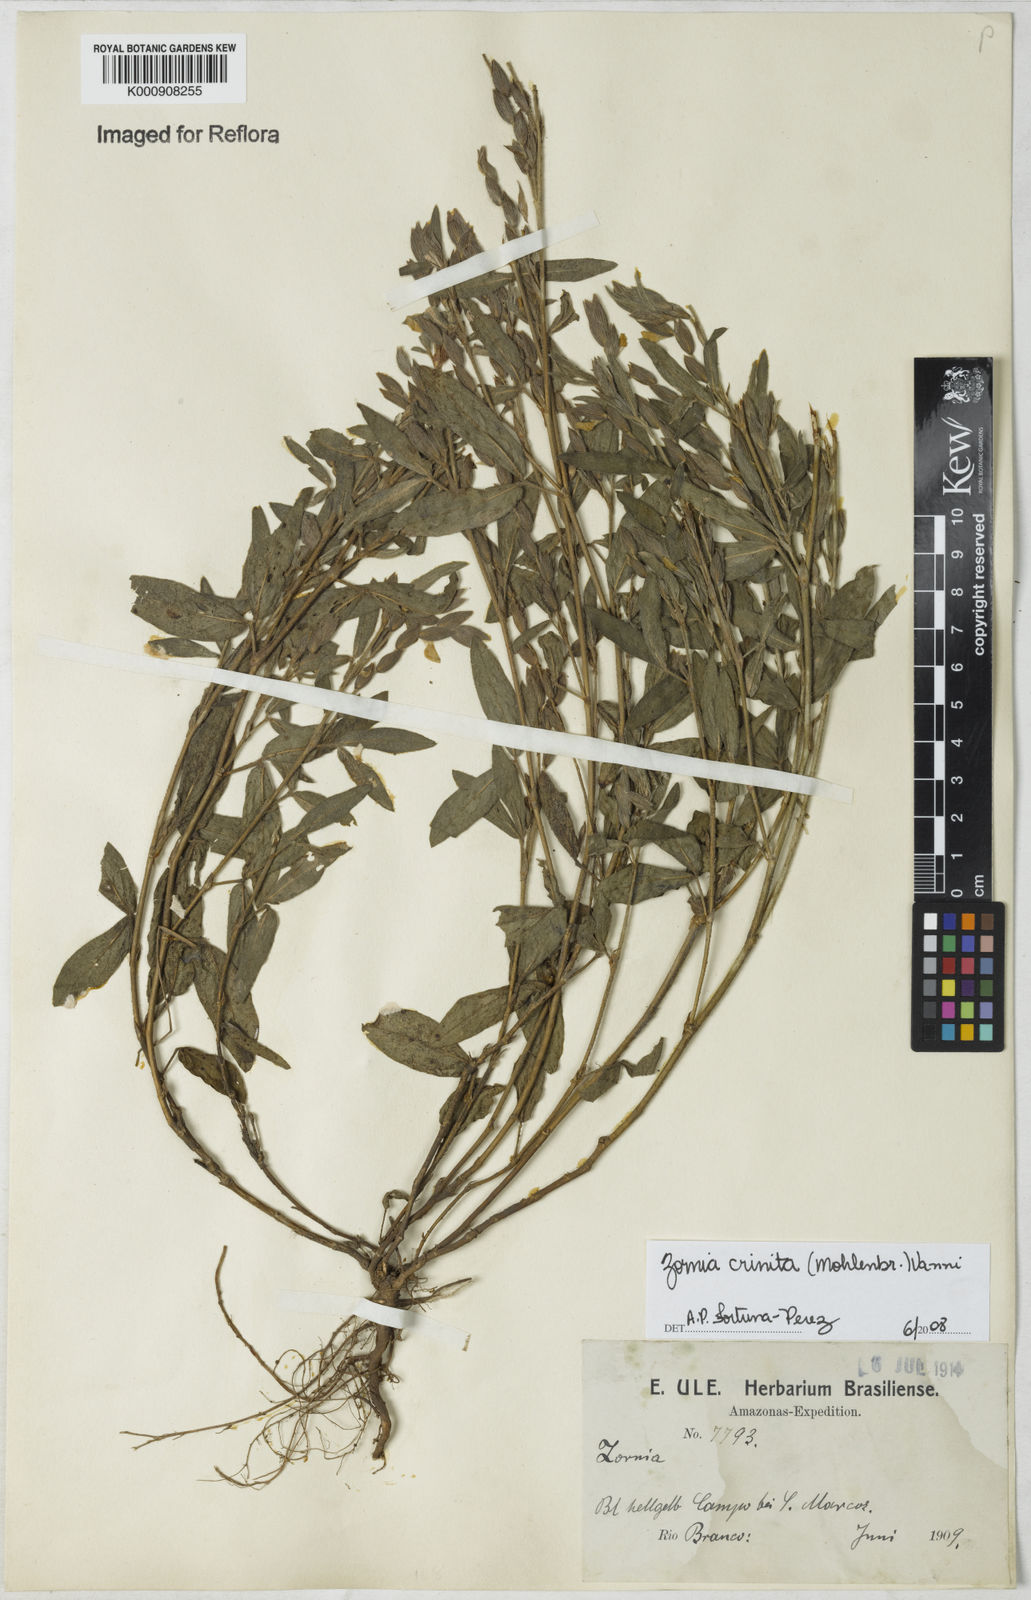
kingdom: Plantae
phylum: Tracheophyta
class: Magnoliopsida
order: Fabales
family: Fabaceae
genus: Zornia
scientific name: Zornia pardina
